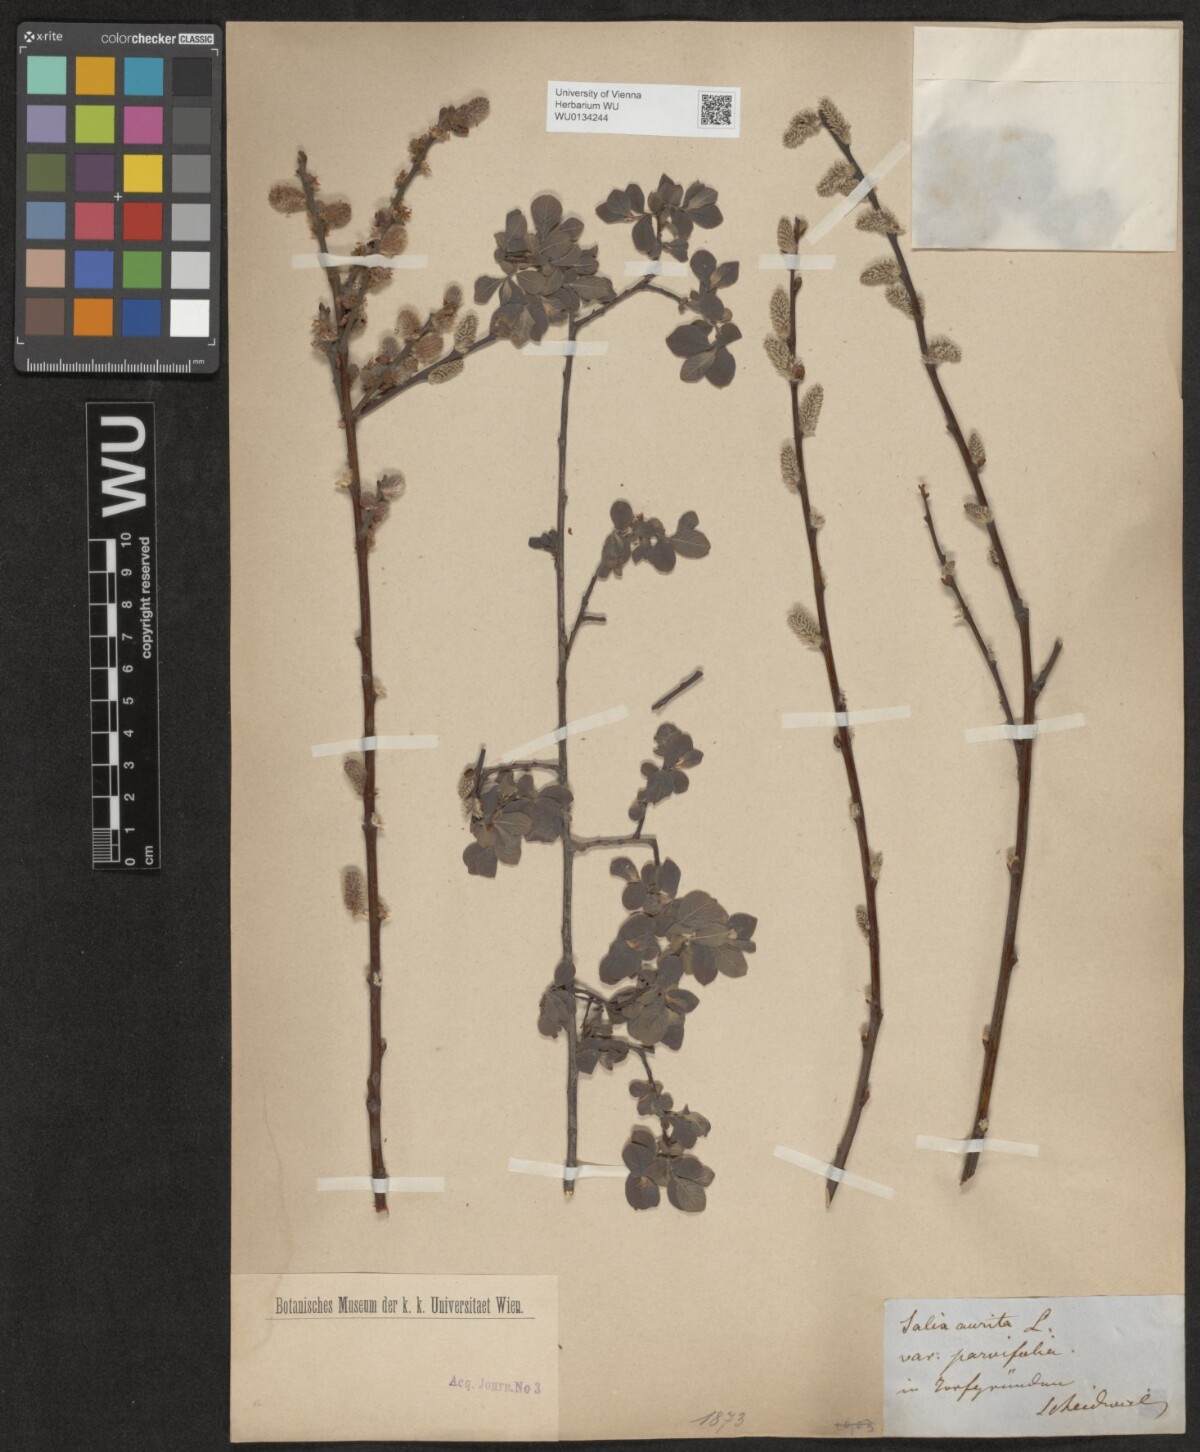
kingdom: Plantae
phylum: Tracheophyta
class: Magnoliopsida
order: Malpighiales
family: Salicaceae
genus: Salix
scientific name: Salix aurita
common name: Eared willow
